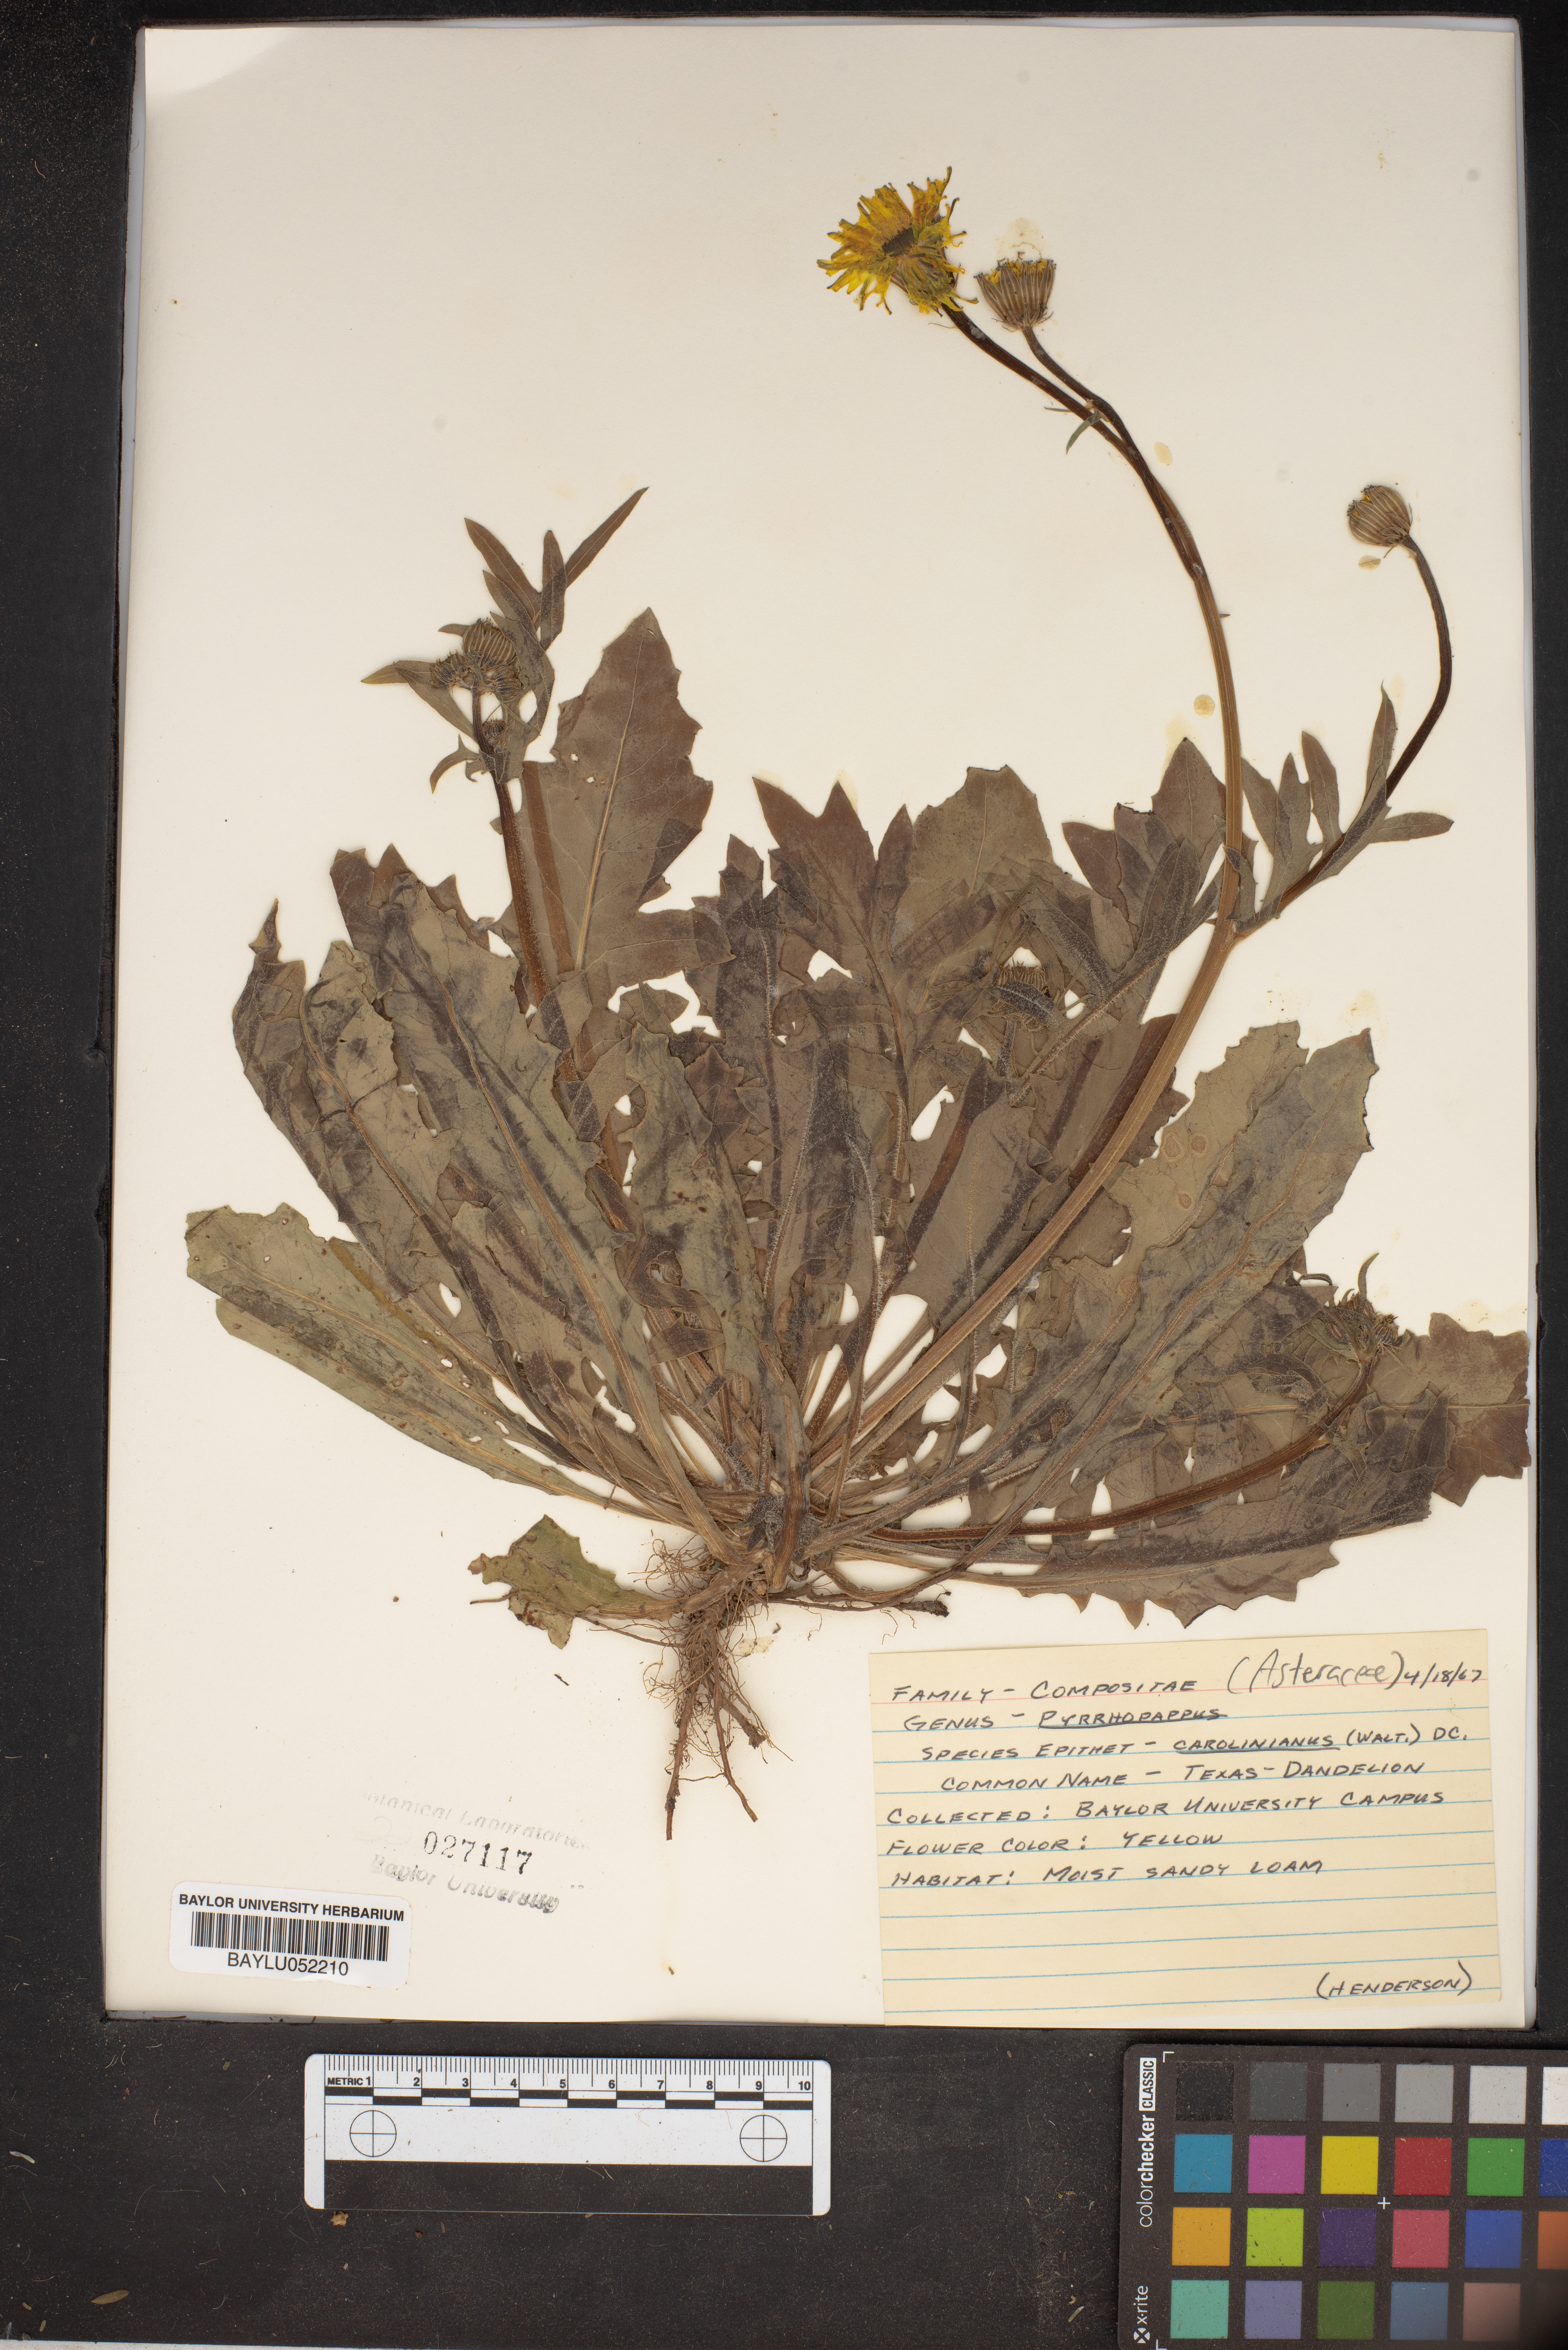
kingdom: Plantae
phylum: Tracheophyta
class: Magnoliopsida
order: Asterales
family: Asteraceae
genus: Pyrrhopappus
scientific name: Pyrrhopappus carolinianus
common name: Carolina desert-chicory
